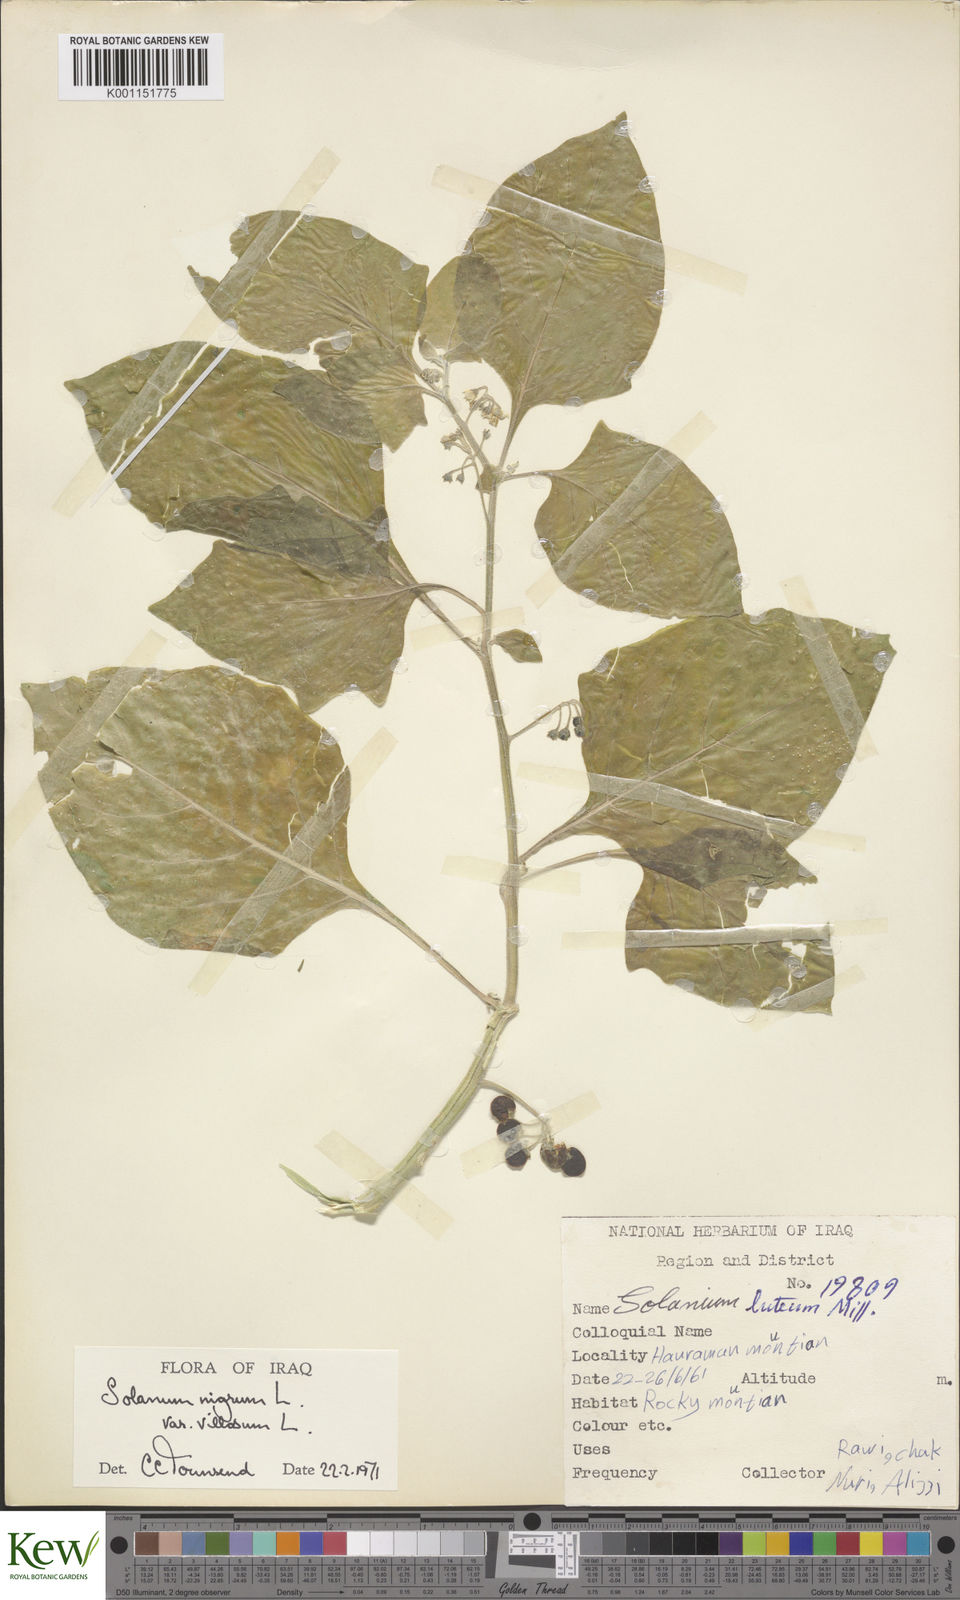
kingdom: Plantae
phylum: Tracheophyta
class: Magnoliopsida
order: Solanales
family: Solanaceae
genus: Solanum
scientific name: Solanum villosum
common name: Red nightshade
